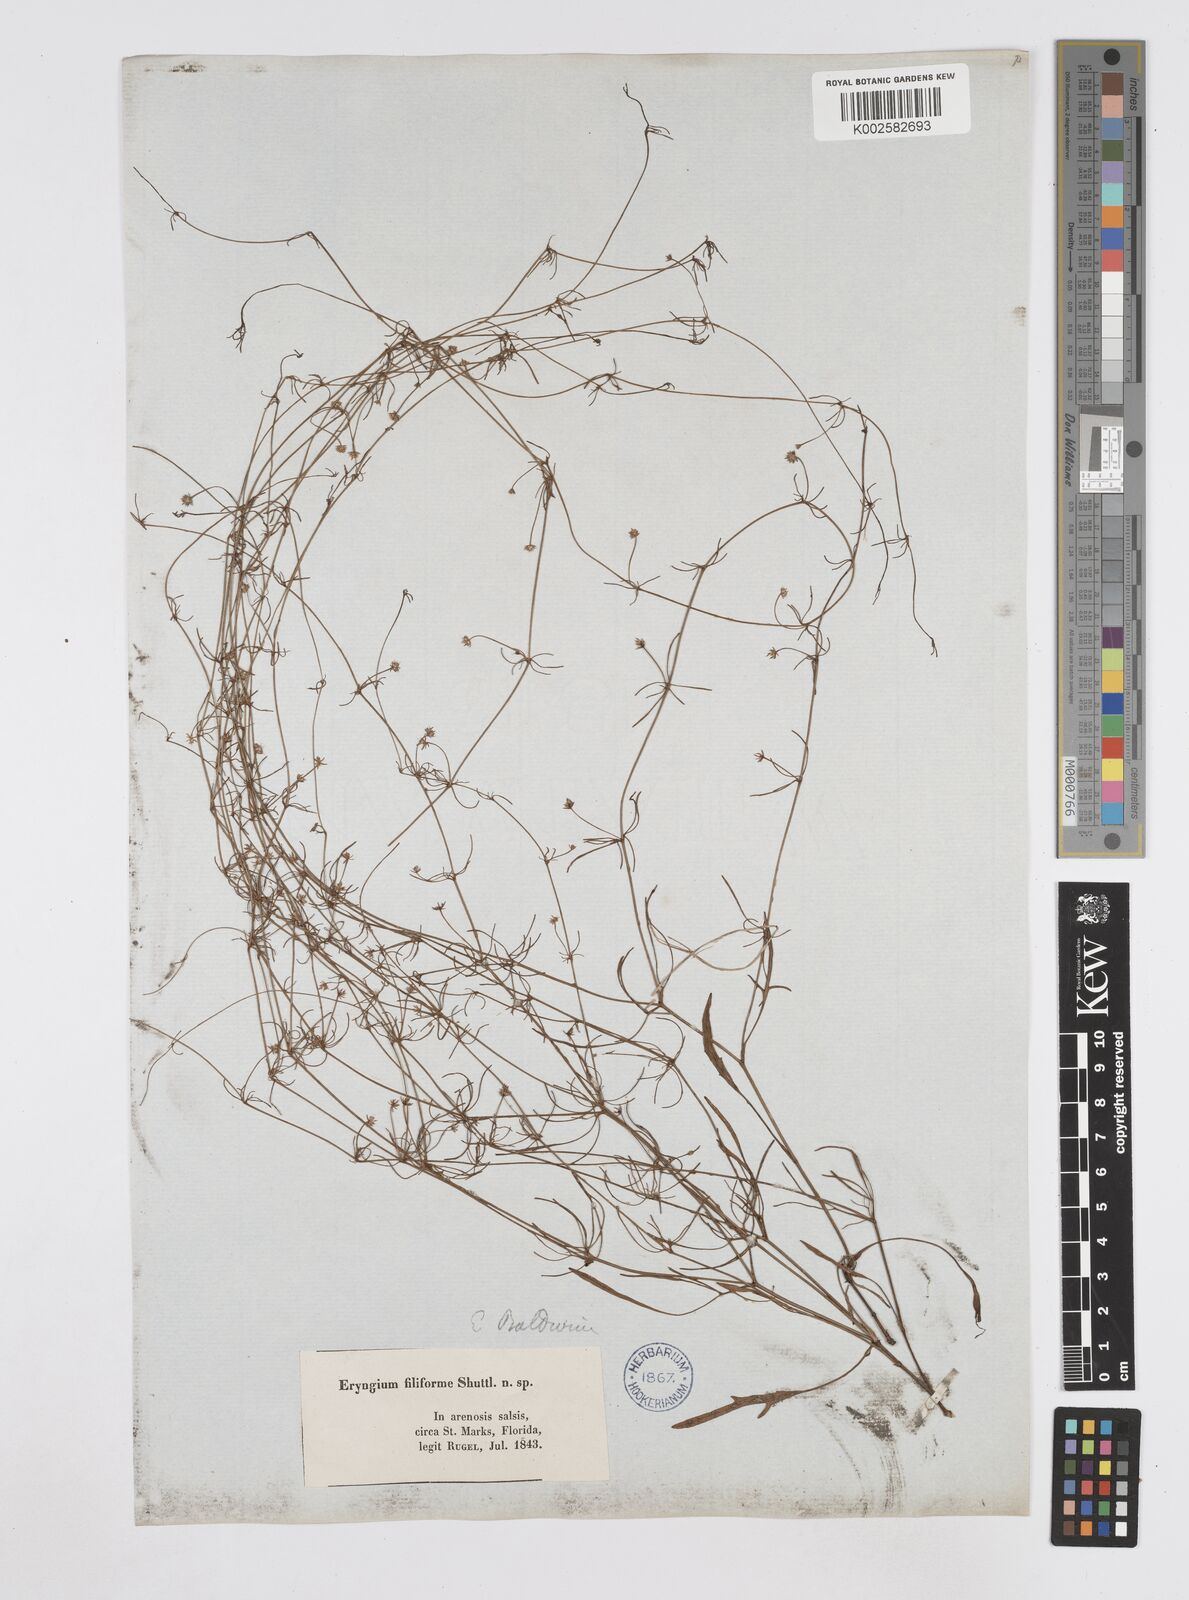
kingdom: Plantae
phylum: Tracheophyta
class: Magnoliopsida
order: Apiales
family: Apiaceae
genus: Eryngium
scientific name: Eryngium baldwinii
